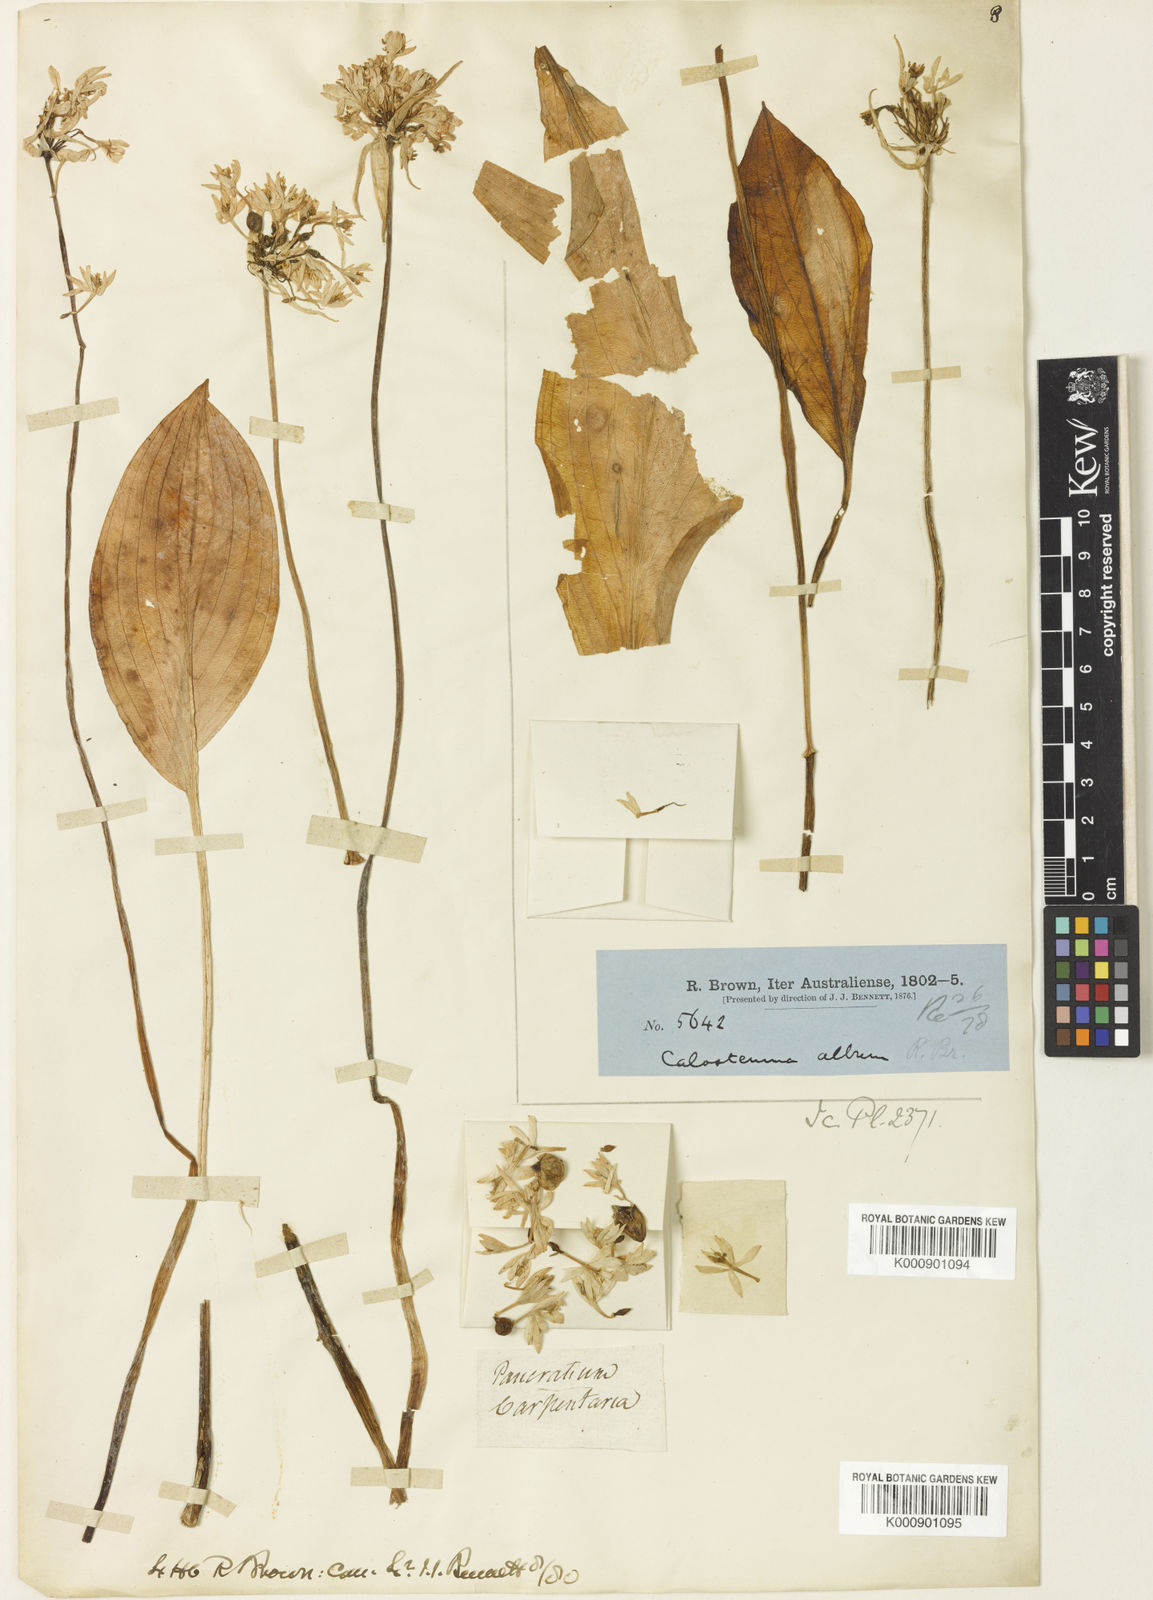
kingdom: Plantae
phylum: Tracheophyta
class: Liliopsida
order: Asparagales
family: Amaryllidaceae
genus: Proiphys
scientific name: Proiphys alba
